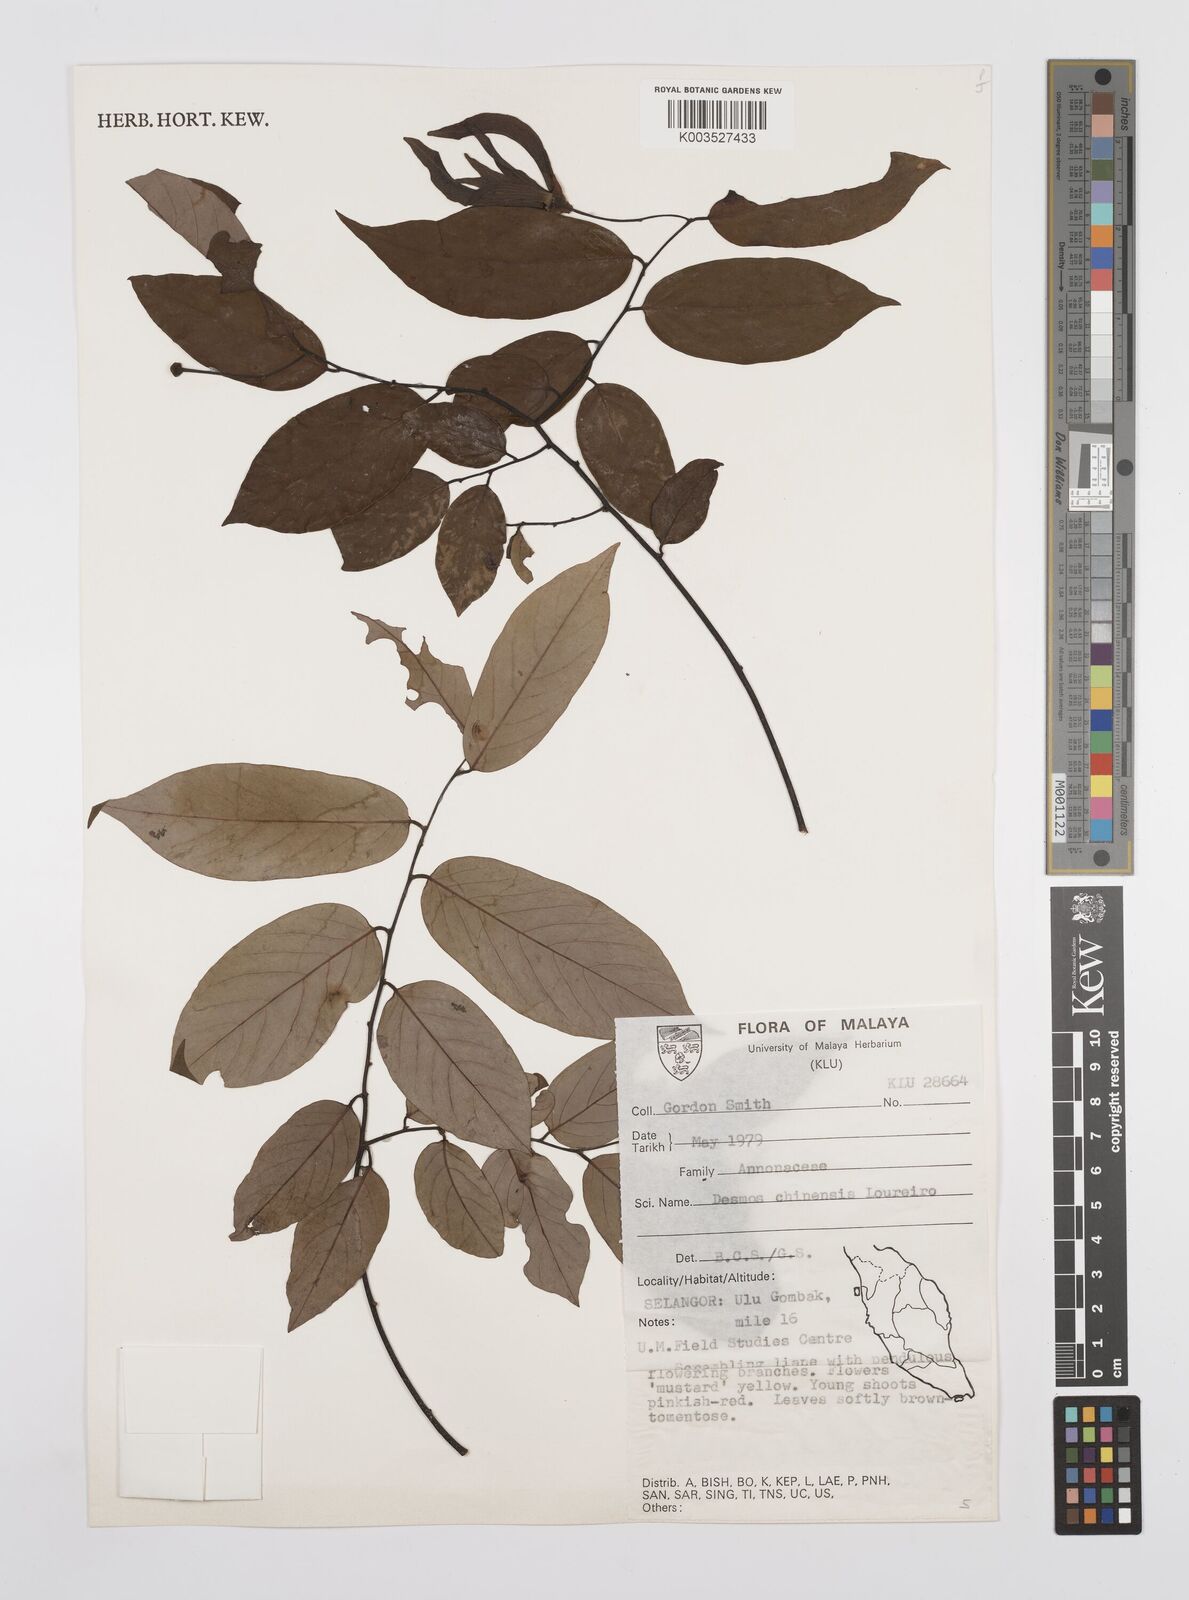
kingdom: Plantae
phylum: Tracheophyta
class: Magnoliopsida
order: Magnoliales
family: Annonaceae
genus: Desmos
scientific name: Desmos chinensis
